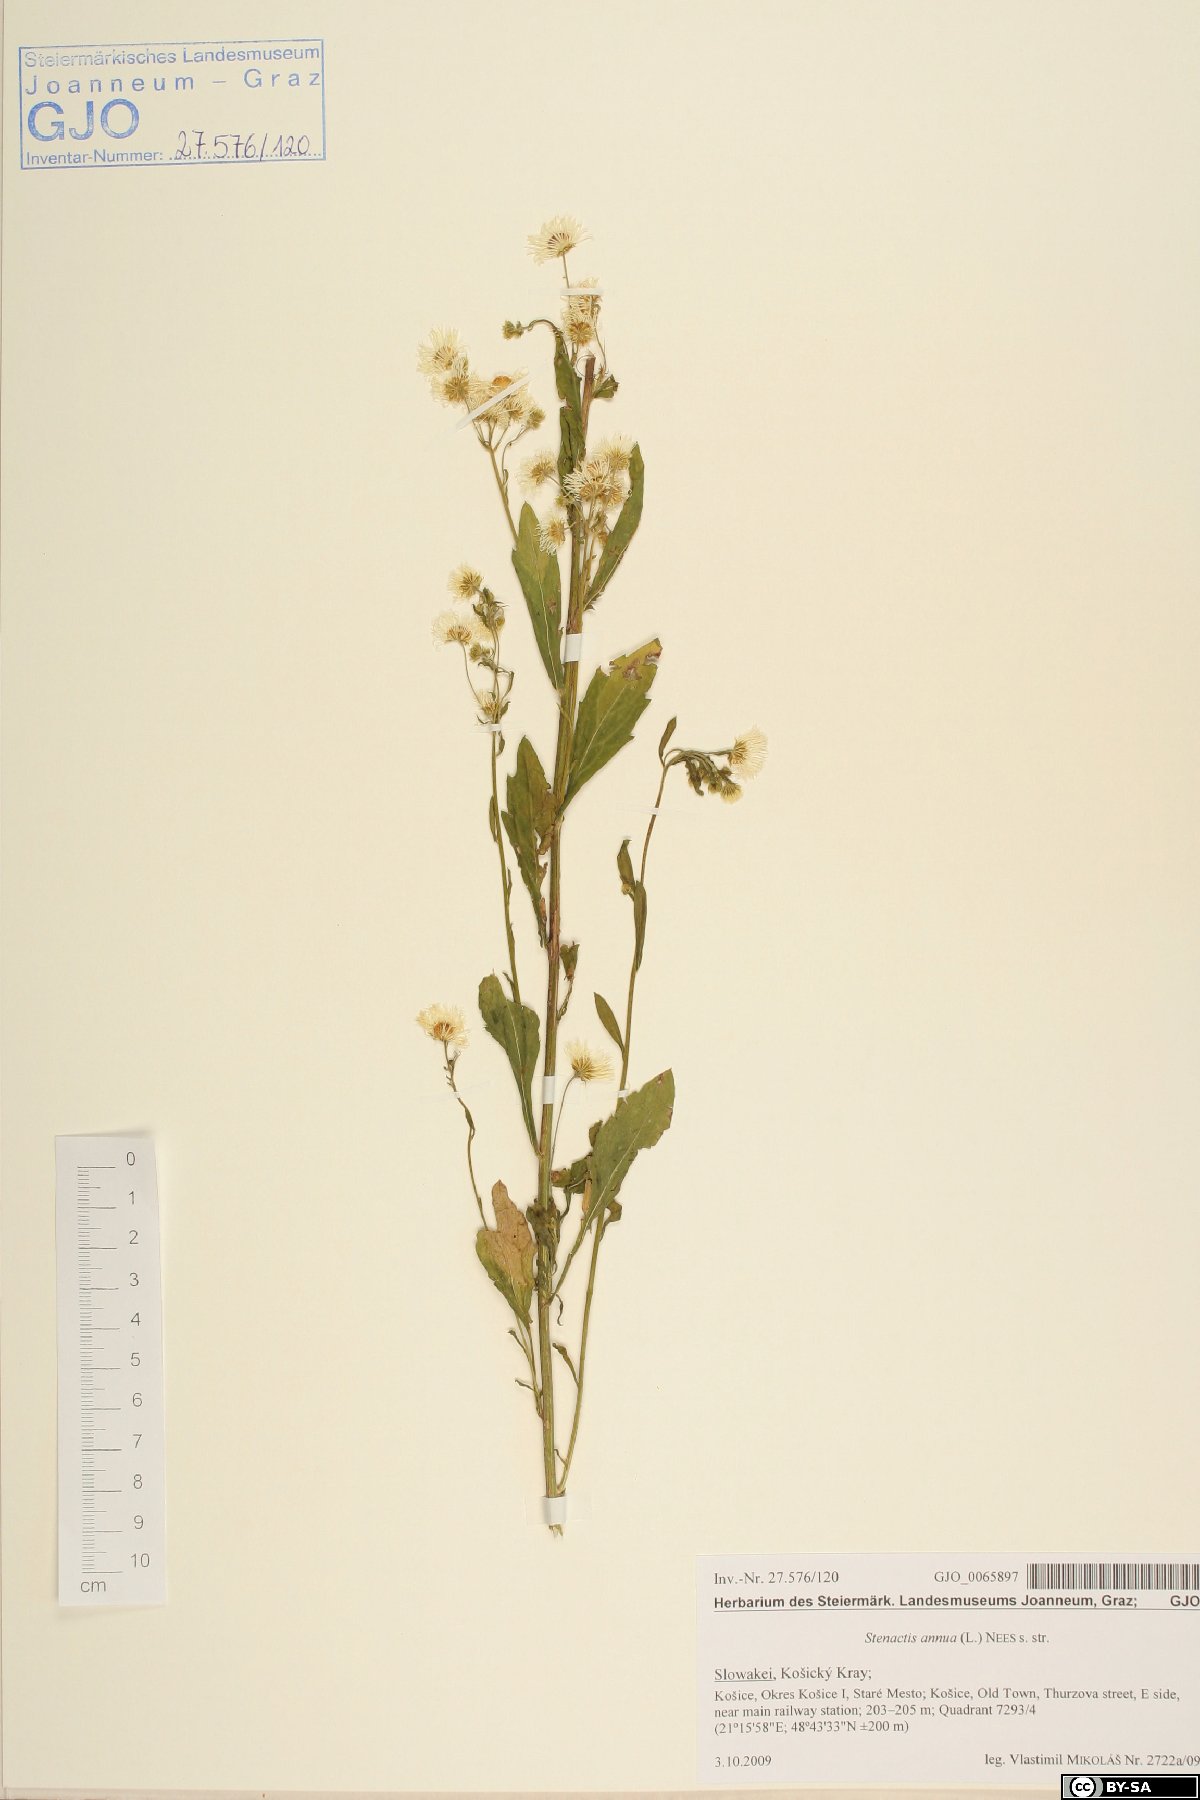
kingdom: Plantae
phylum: Tracheophyta
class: Magnoliopsida
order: Asterales
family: Asteraceae
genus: Erigeron
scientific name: Erigeron annuus
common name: Tall fleabane
